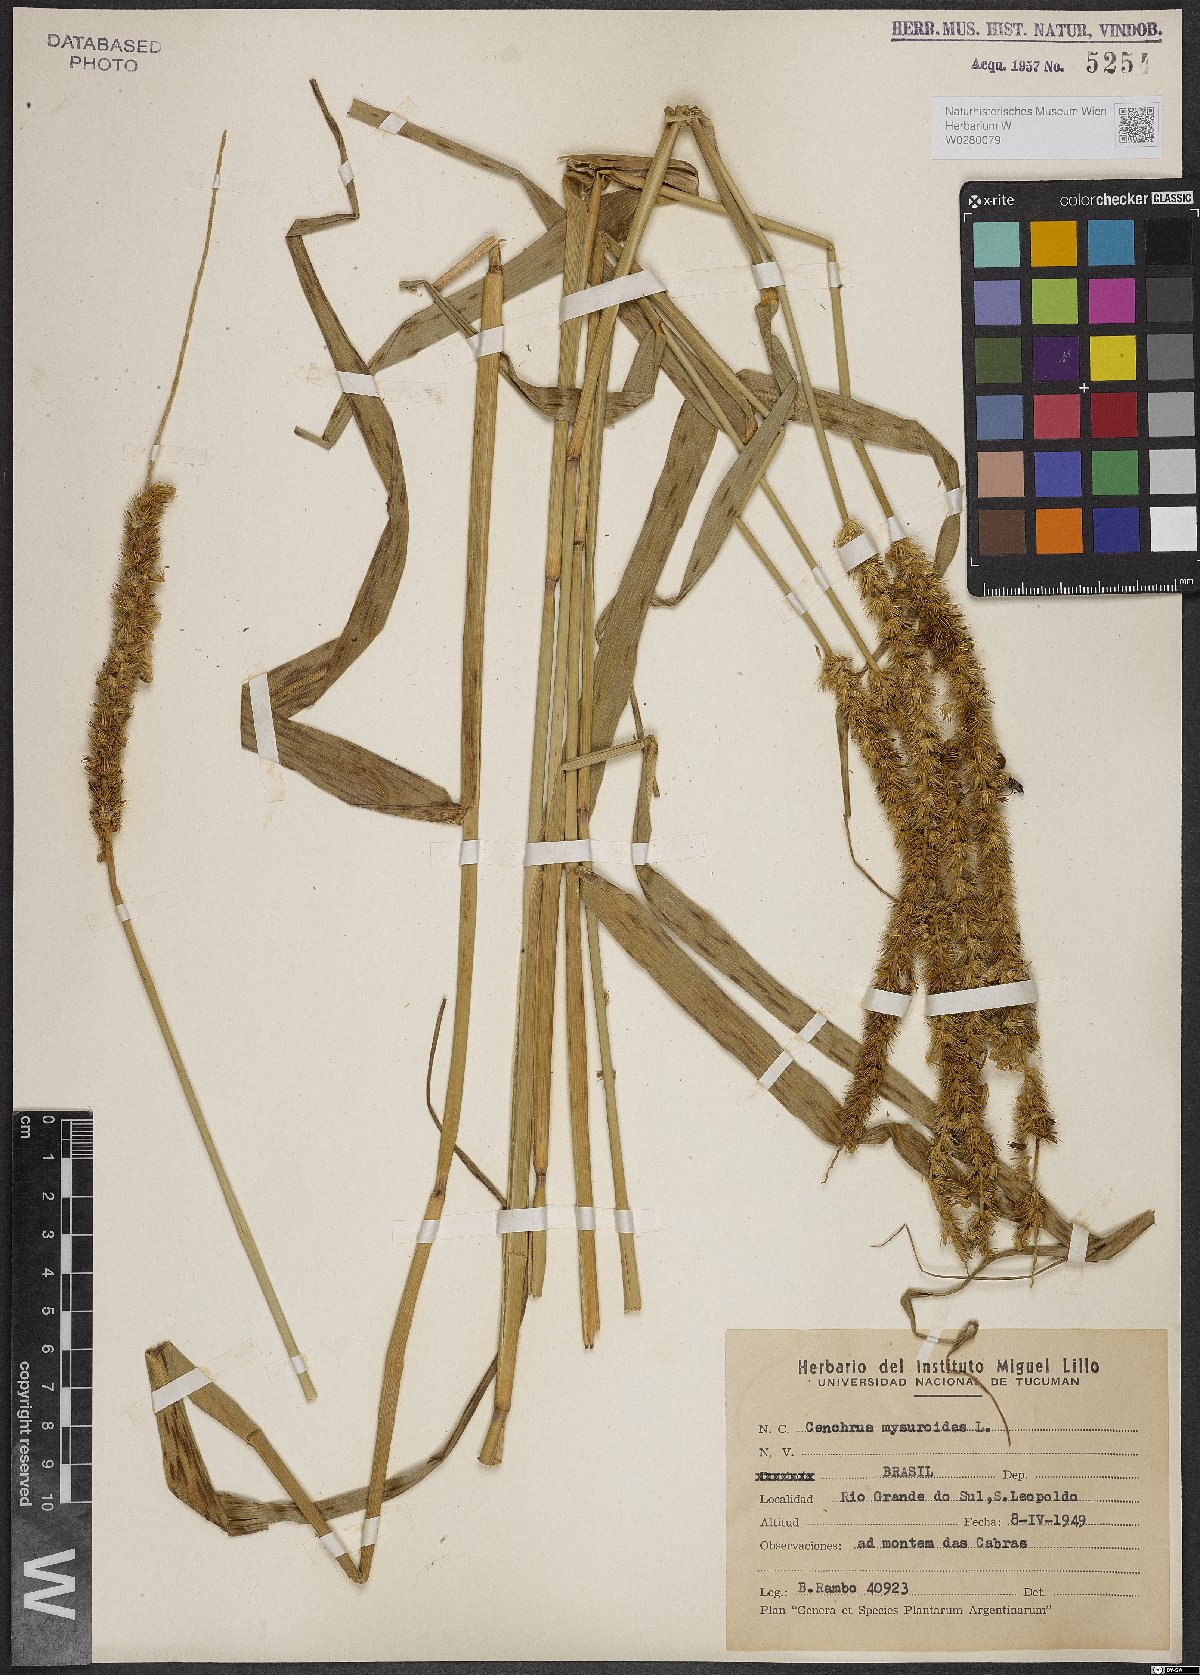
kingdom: Plantae
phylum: Tracheophyta
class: Liliopsida
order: Poales
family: Poaceae
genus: Cenchrus
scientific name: Cenchrus myosuroides
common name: Big sandbur
